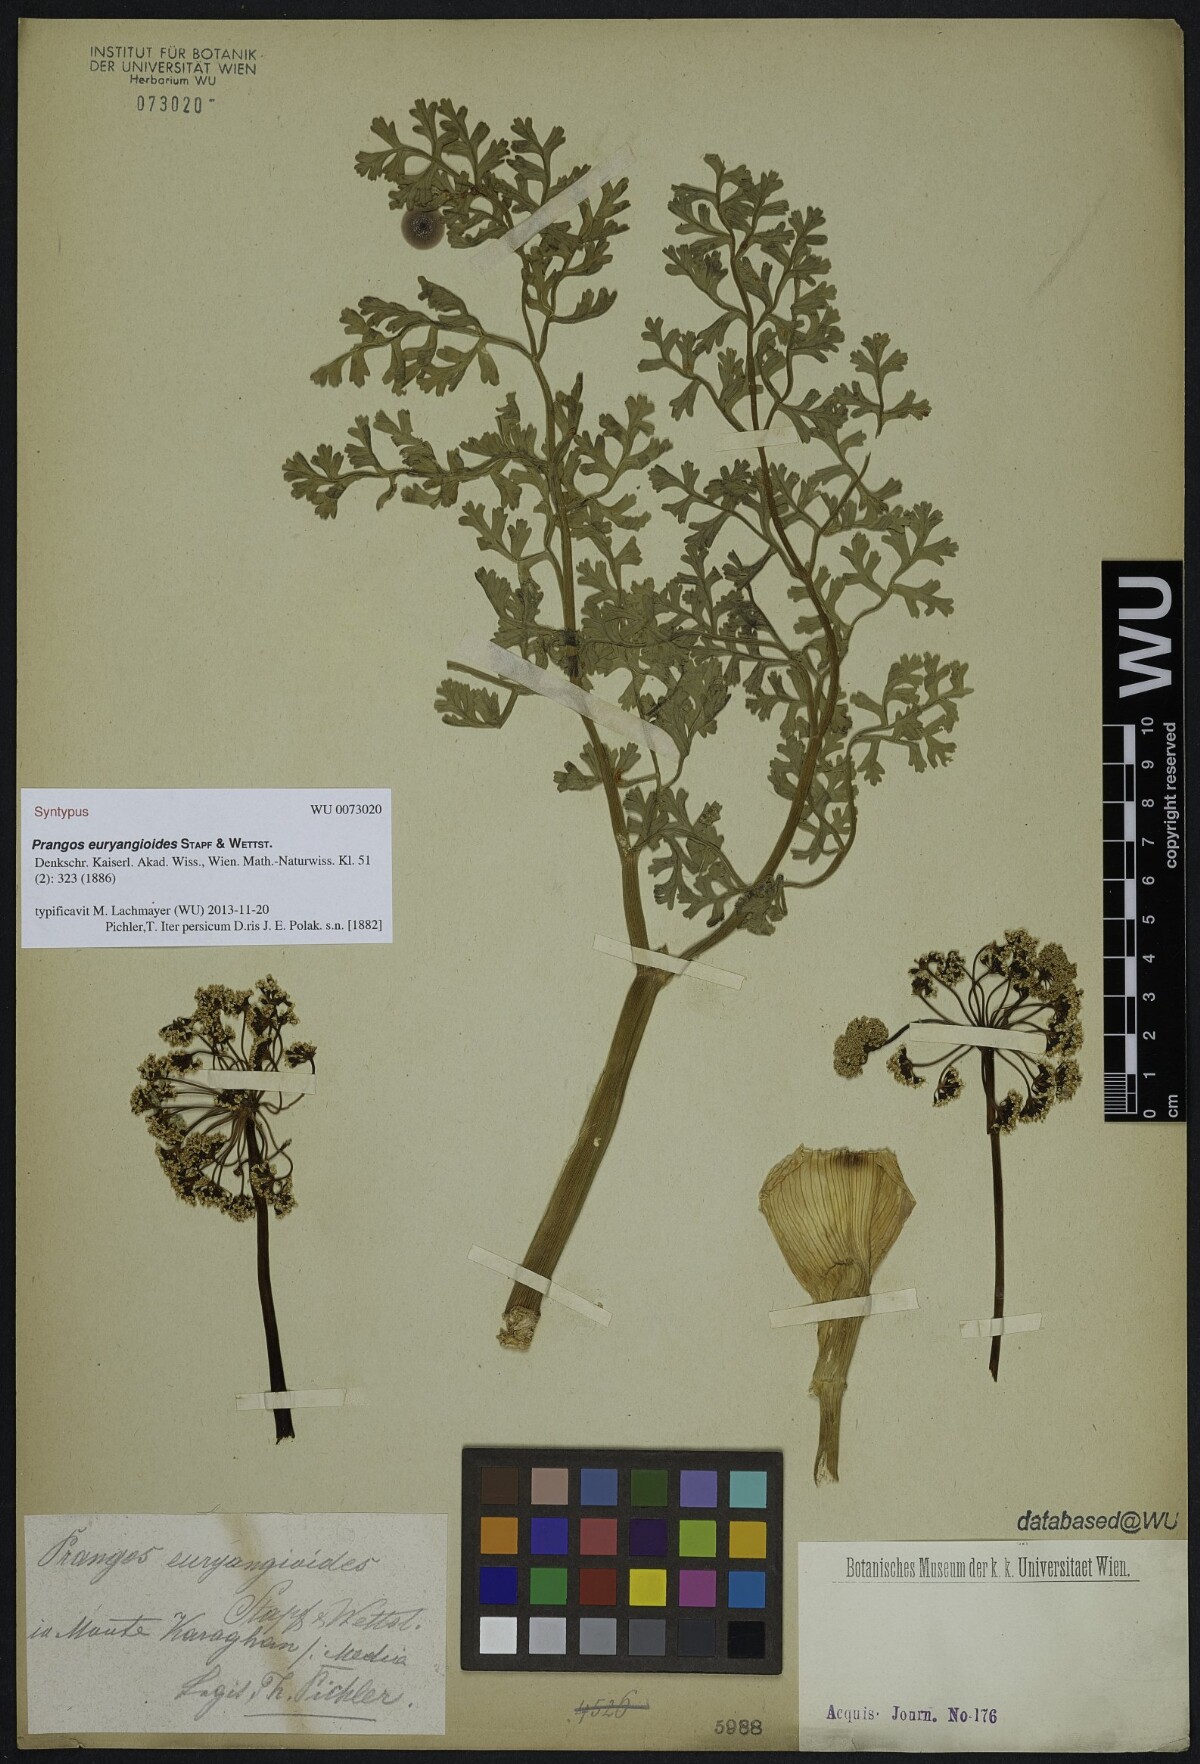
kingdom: Plantae
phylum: Tracheophyta
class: Magnoliopsida
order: Apiales
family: Apiaceae
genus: Ferula
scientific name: Ferula persica
